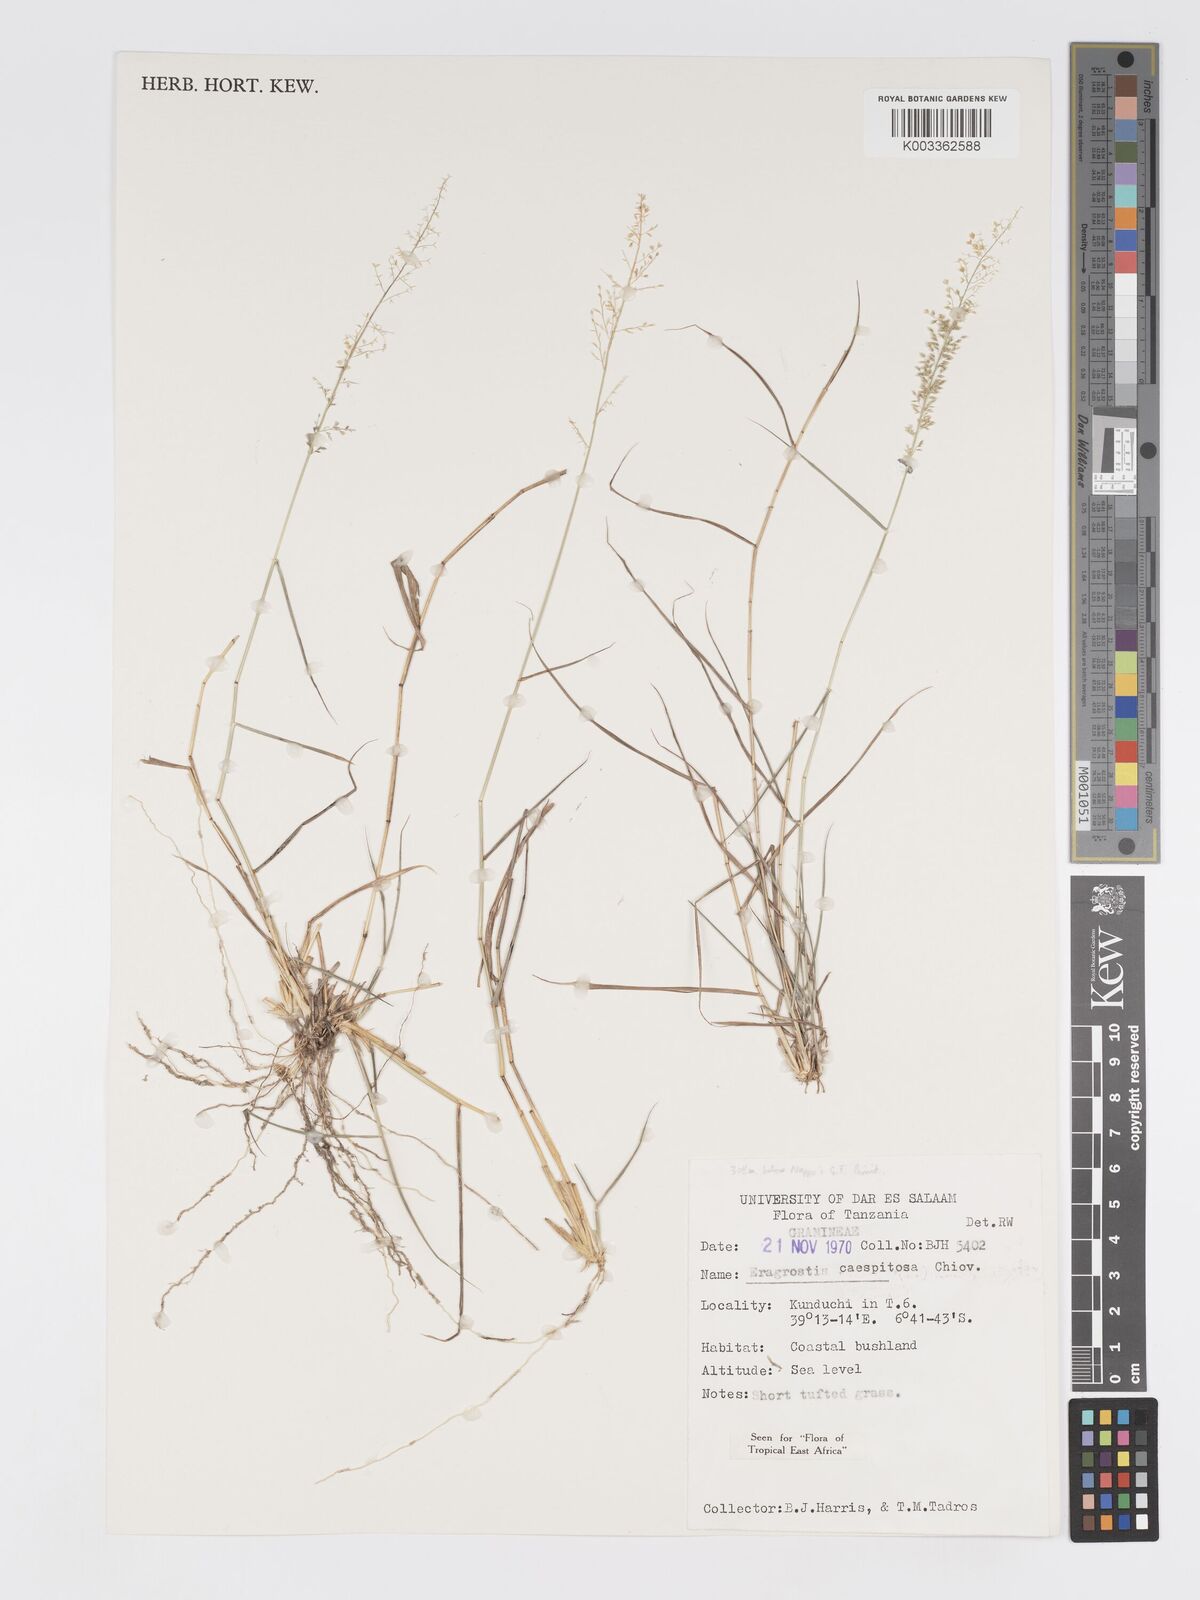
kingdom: Plantae
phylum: Tracheophyta
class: Liliopsida
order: Poales
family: Poaceae
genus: Eragrostis
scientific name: Eragrostis caespitosa
